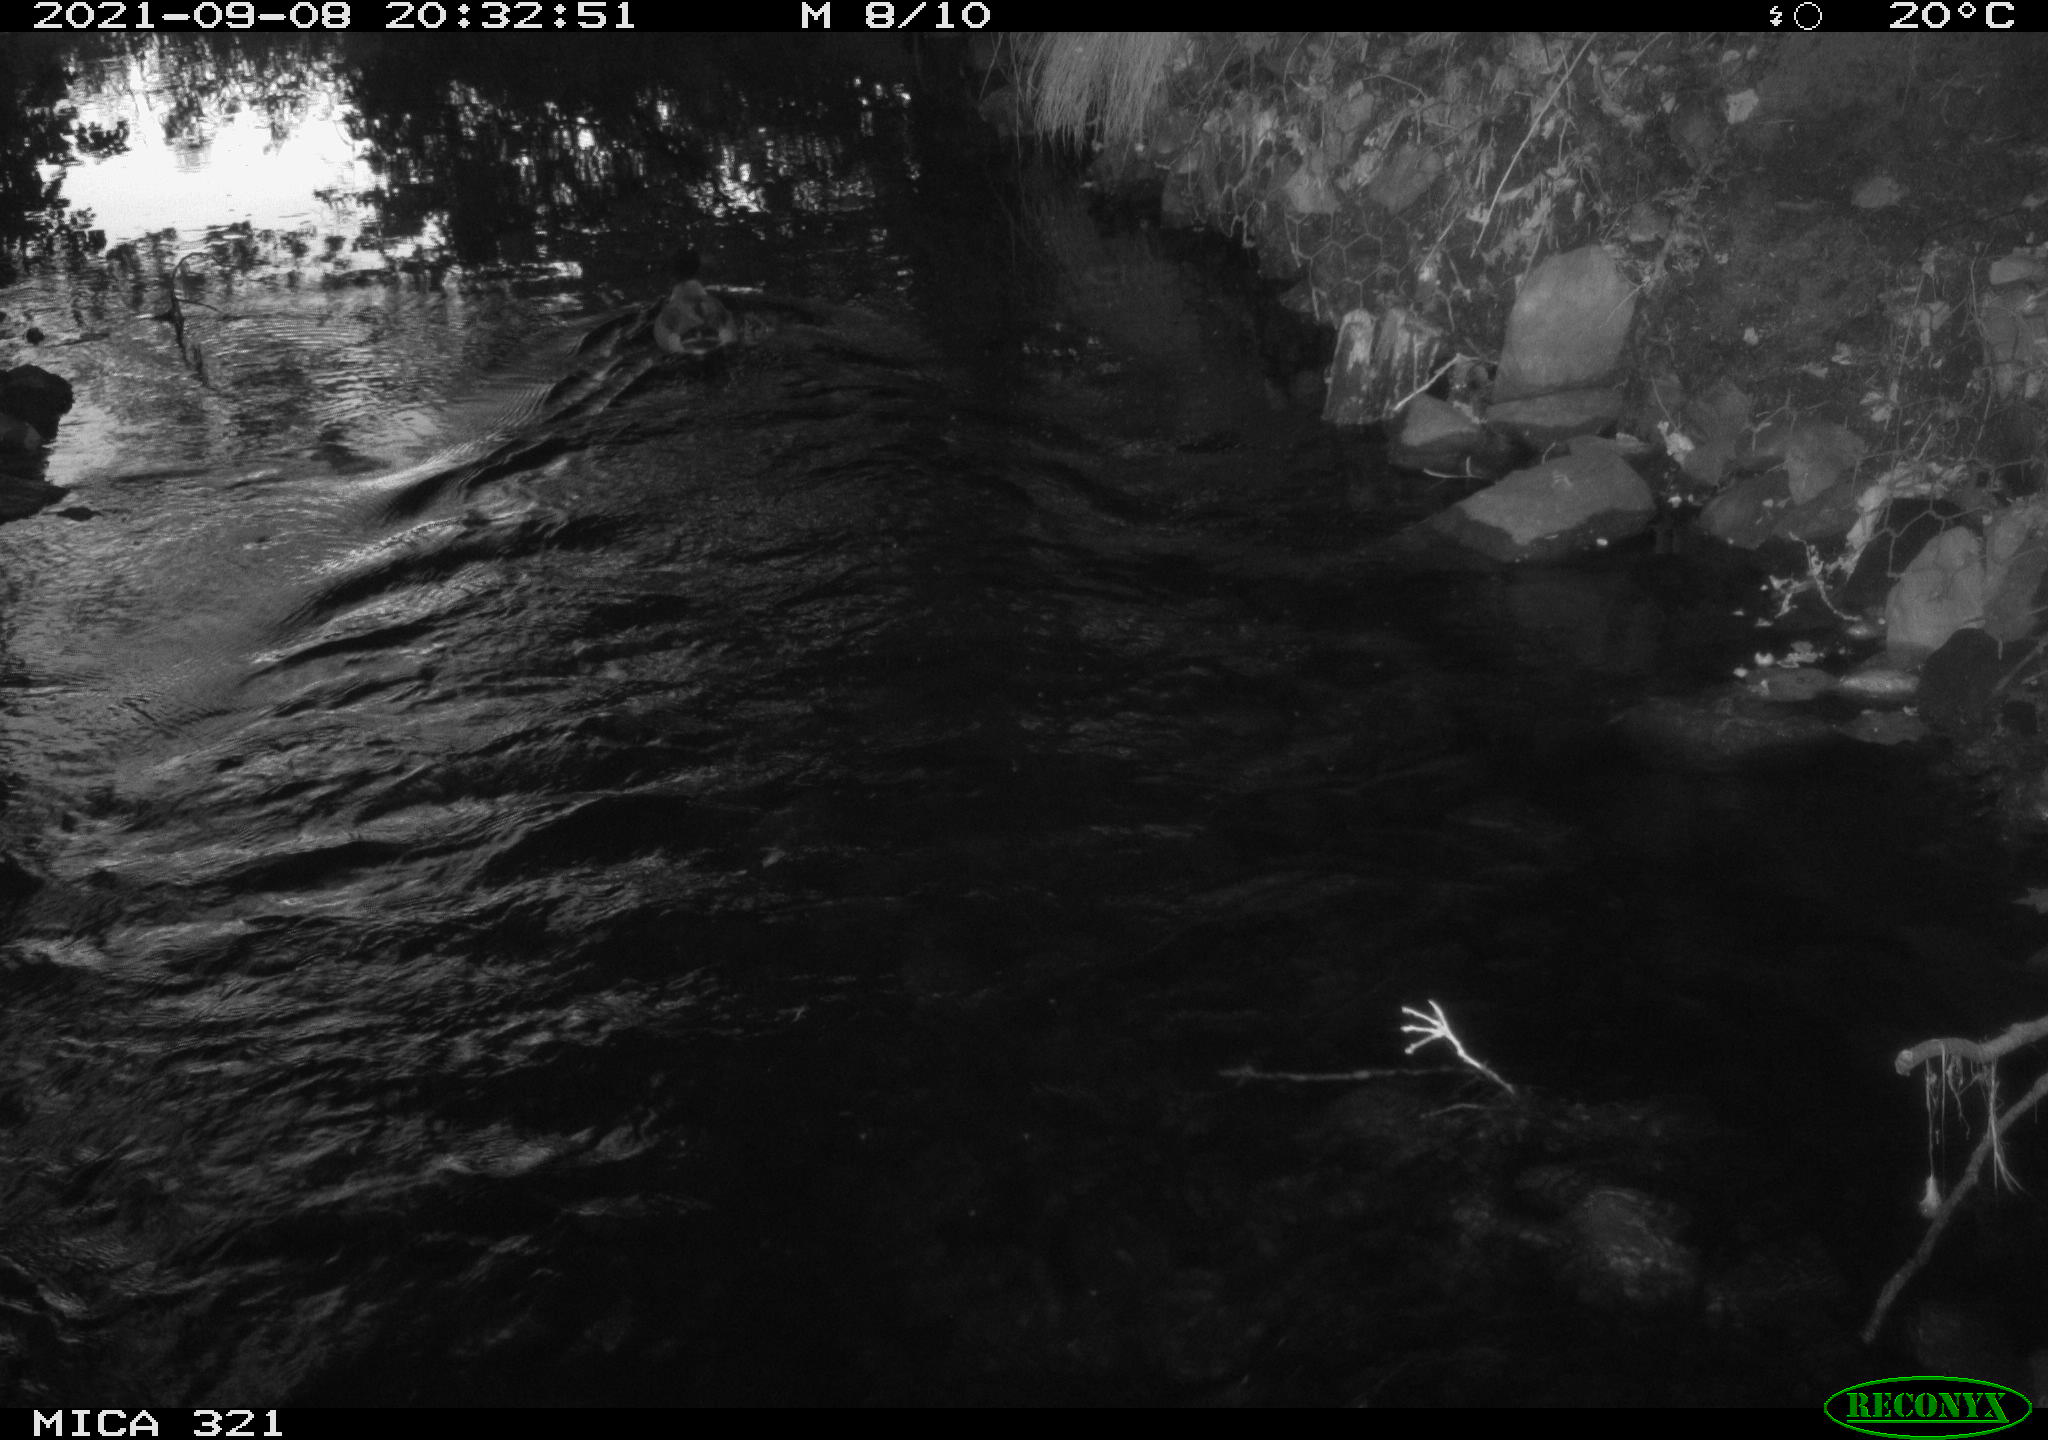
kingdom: Animalia
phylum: Chordata
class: Aves
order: Anseriformes
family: Anatidae
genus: Anas
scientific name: Anas platyrhynchos
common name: Mallard
